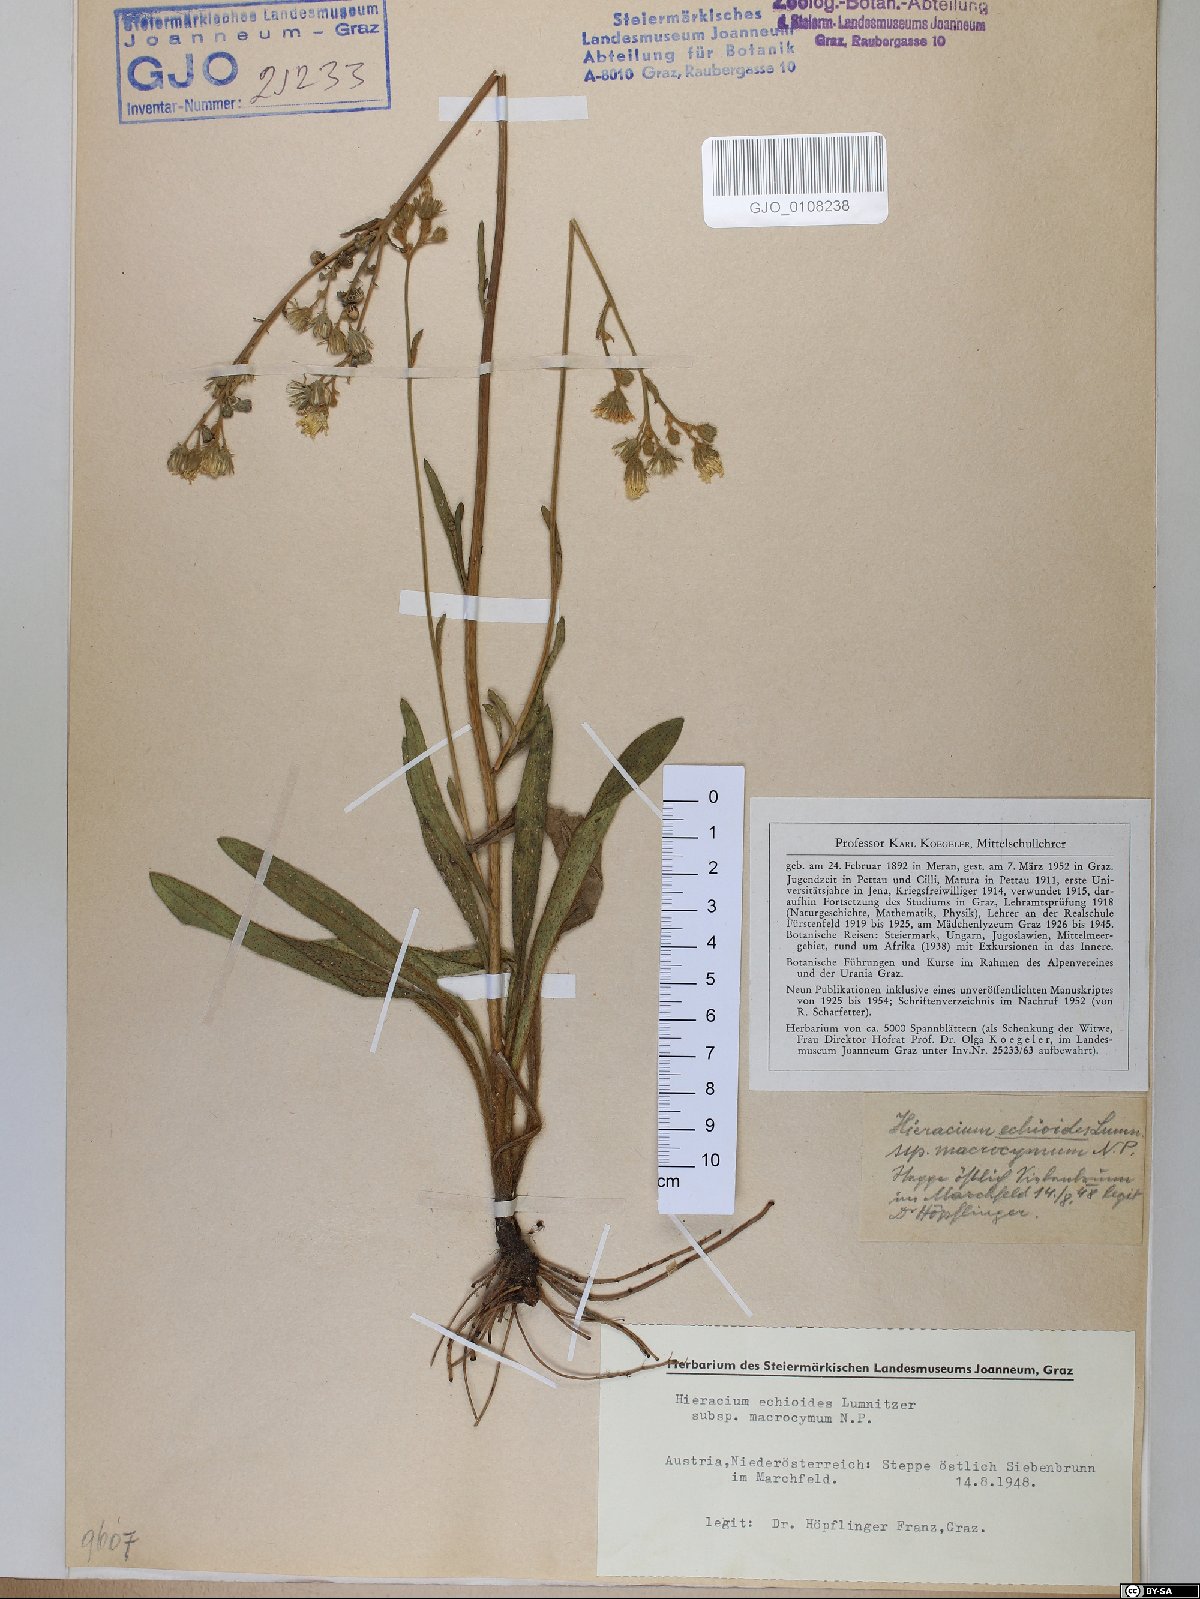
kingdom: Plantae
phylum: Tracheophyta
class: Magnoliopsida
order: Asterales
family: Asteraceae
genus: Pilosella
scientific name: Pilosella echioides
